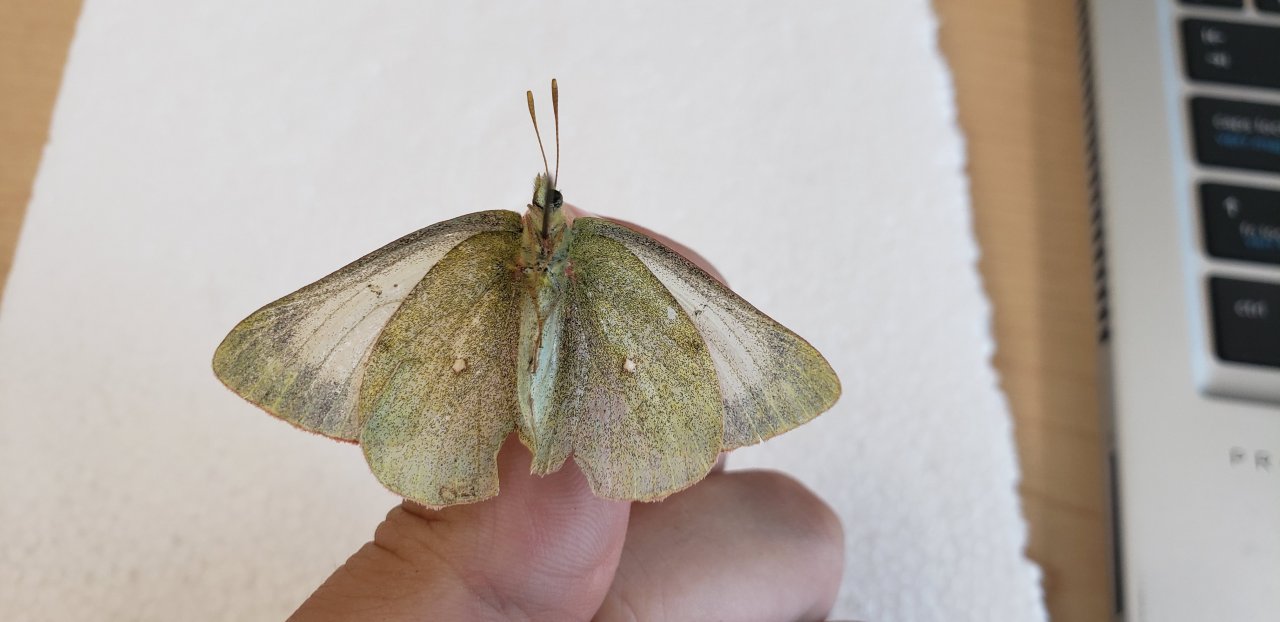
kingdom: Animalia
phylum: Arthropoda
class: Insecta
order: Lepidoptera
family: Pieridae
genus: Colias
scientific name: Colias pelidne
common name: Pelidne Sulphur
